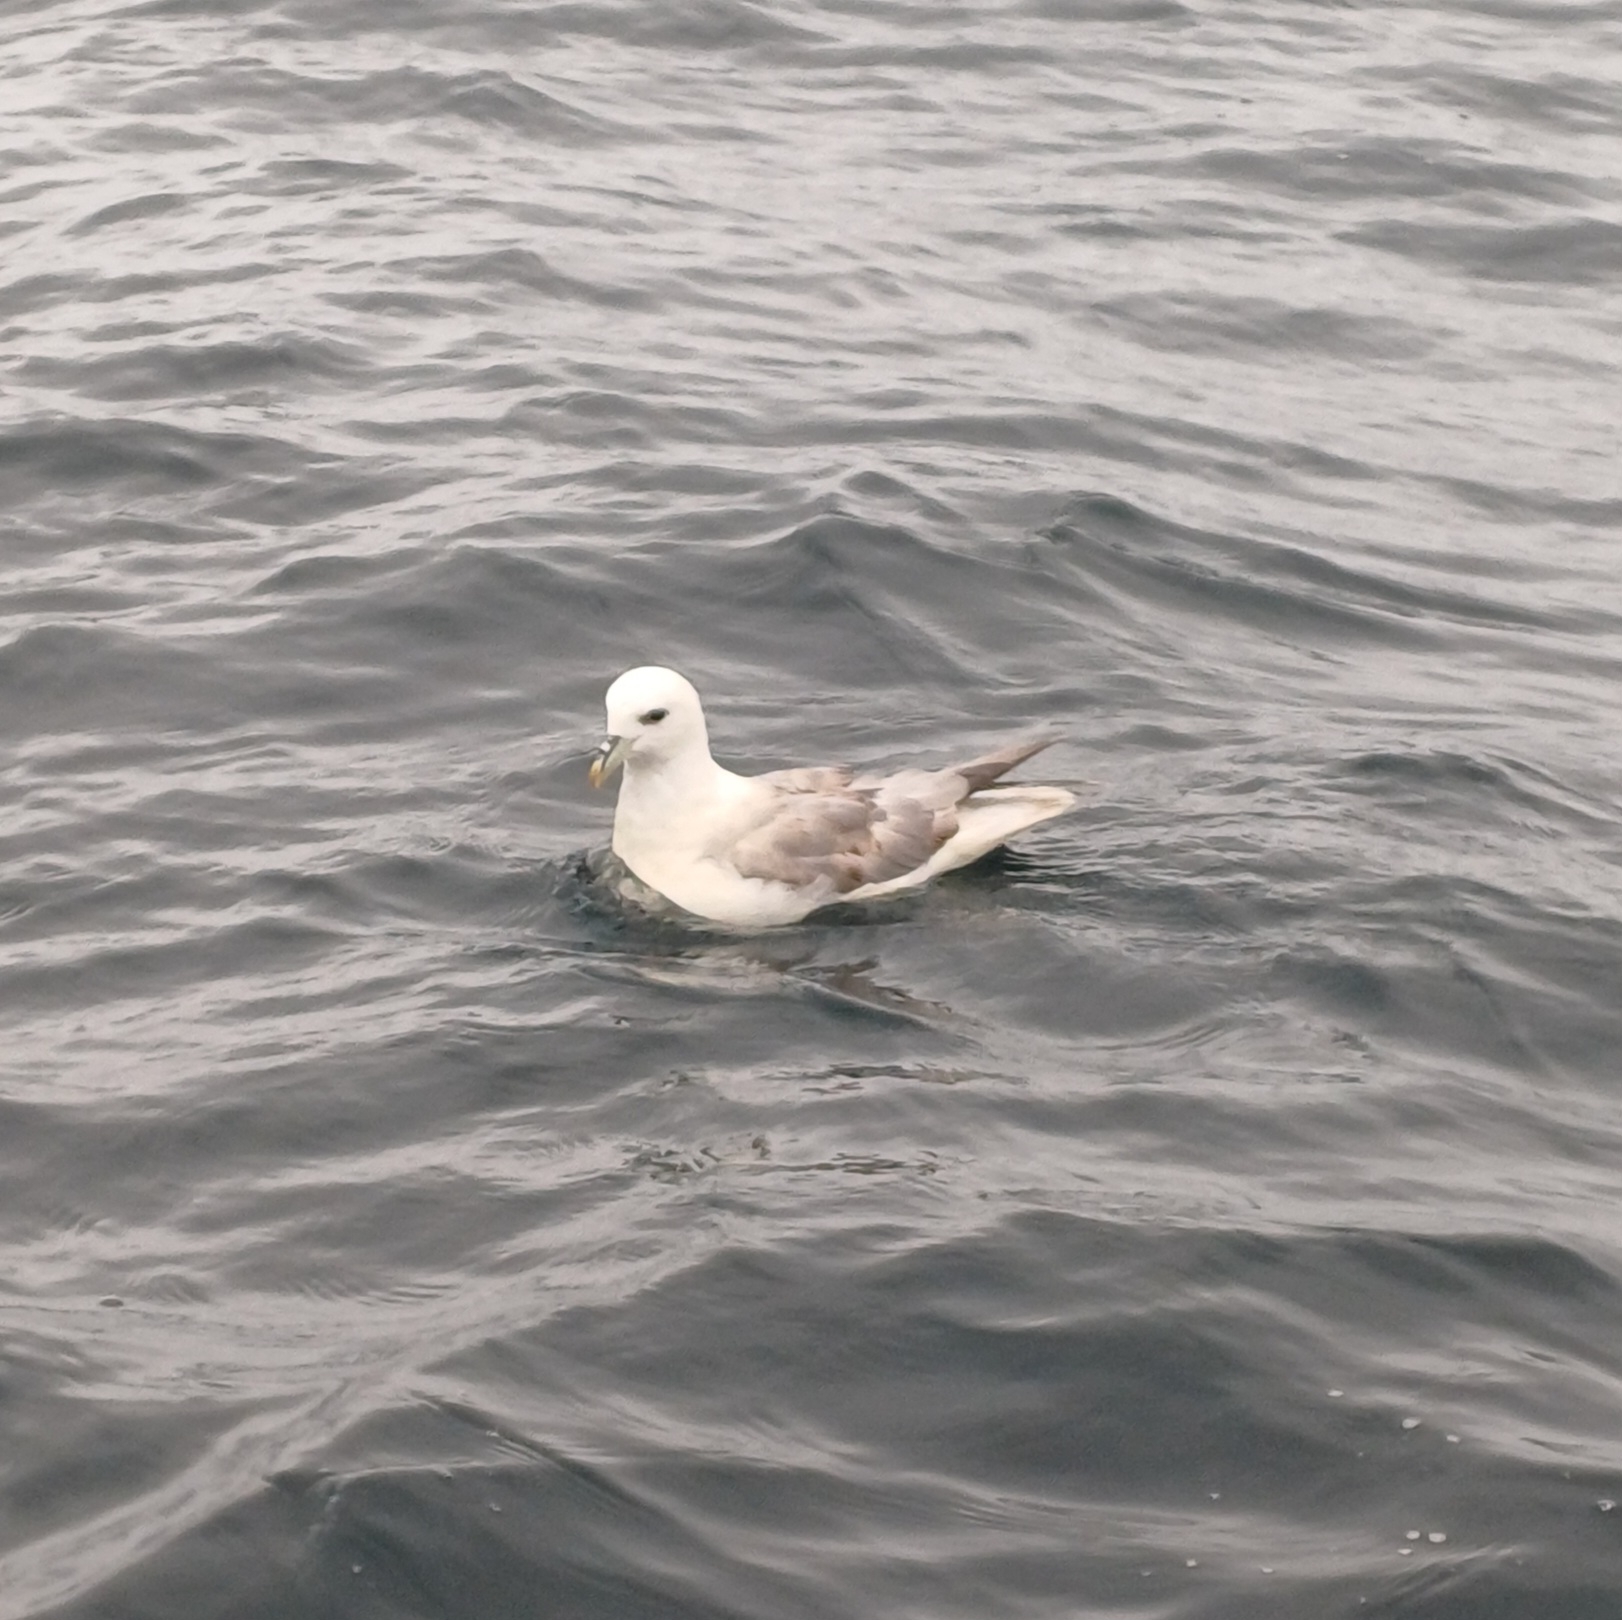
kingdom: Animalia
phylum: Chordata
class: Aves
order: Procellariiformes
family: Procellariidae
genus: Fulmarus
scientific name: Fulmarus glacialis
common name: Mallemuk
